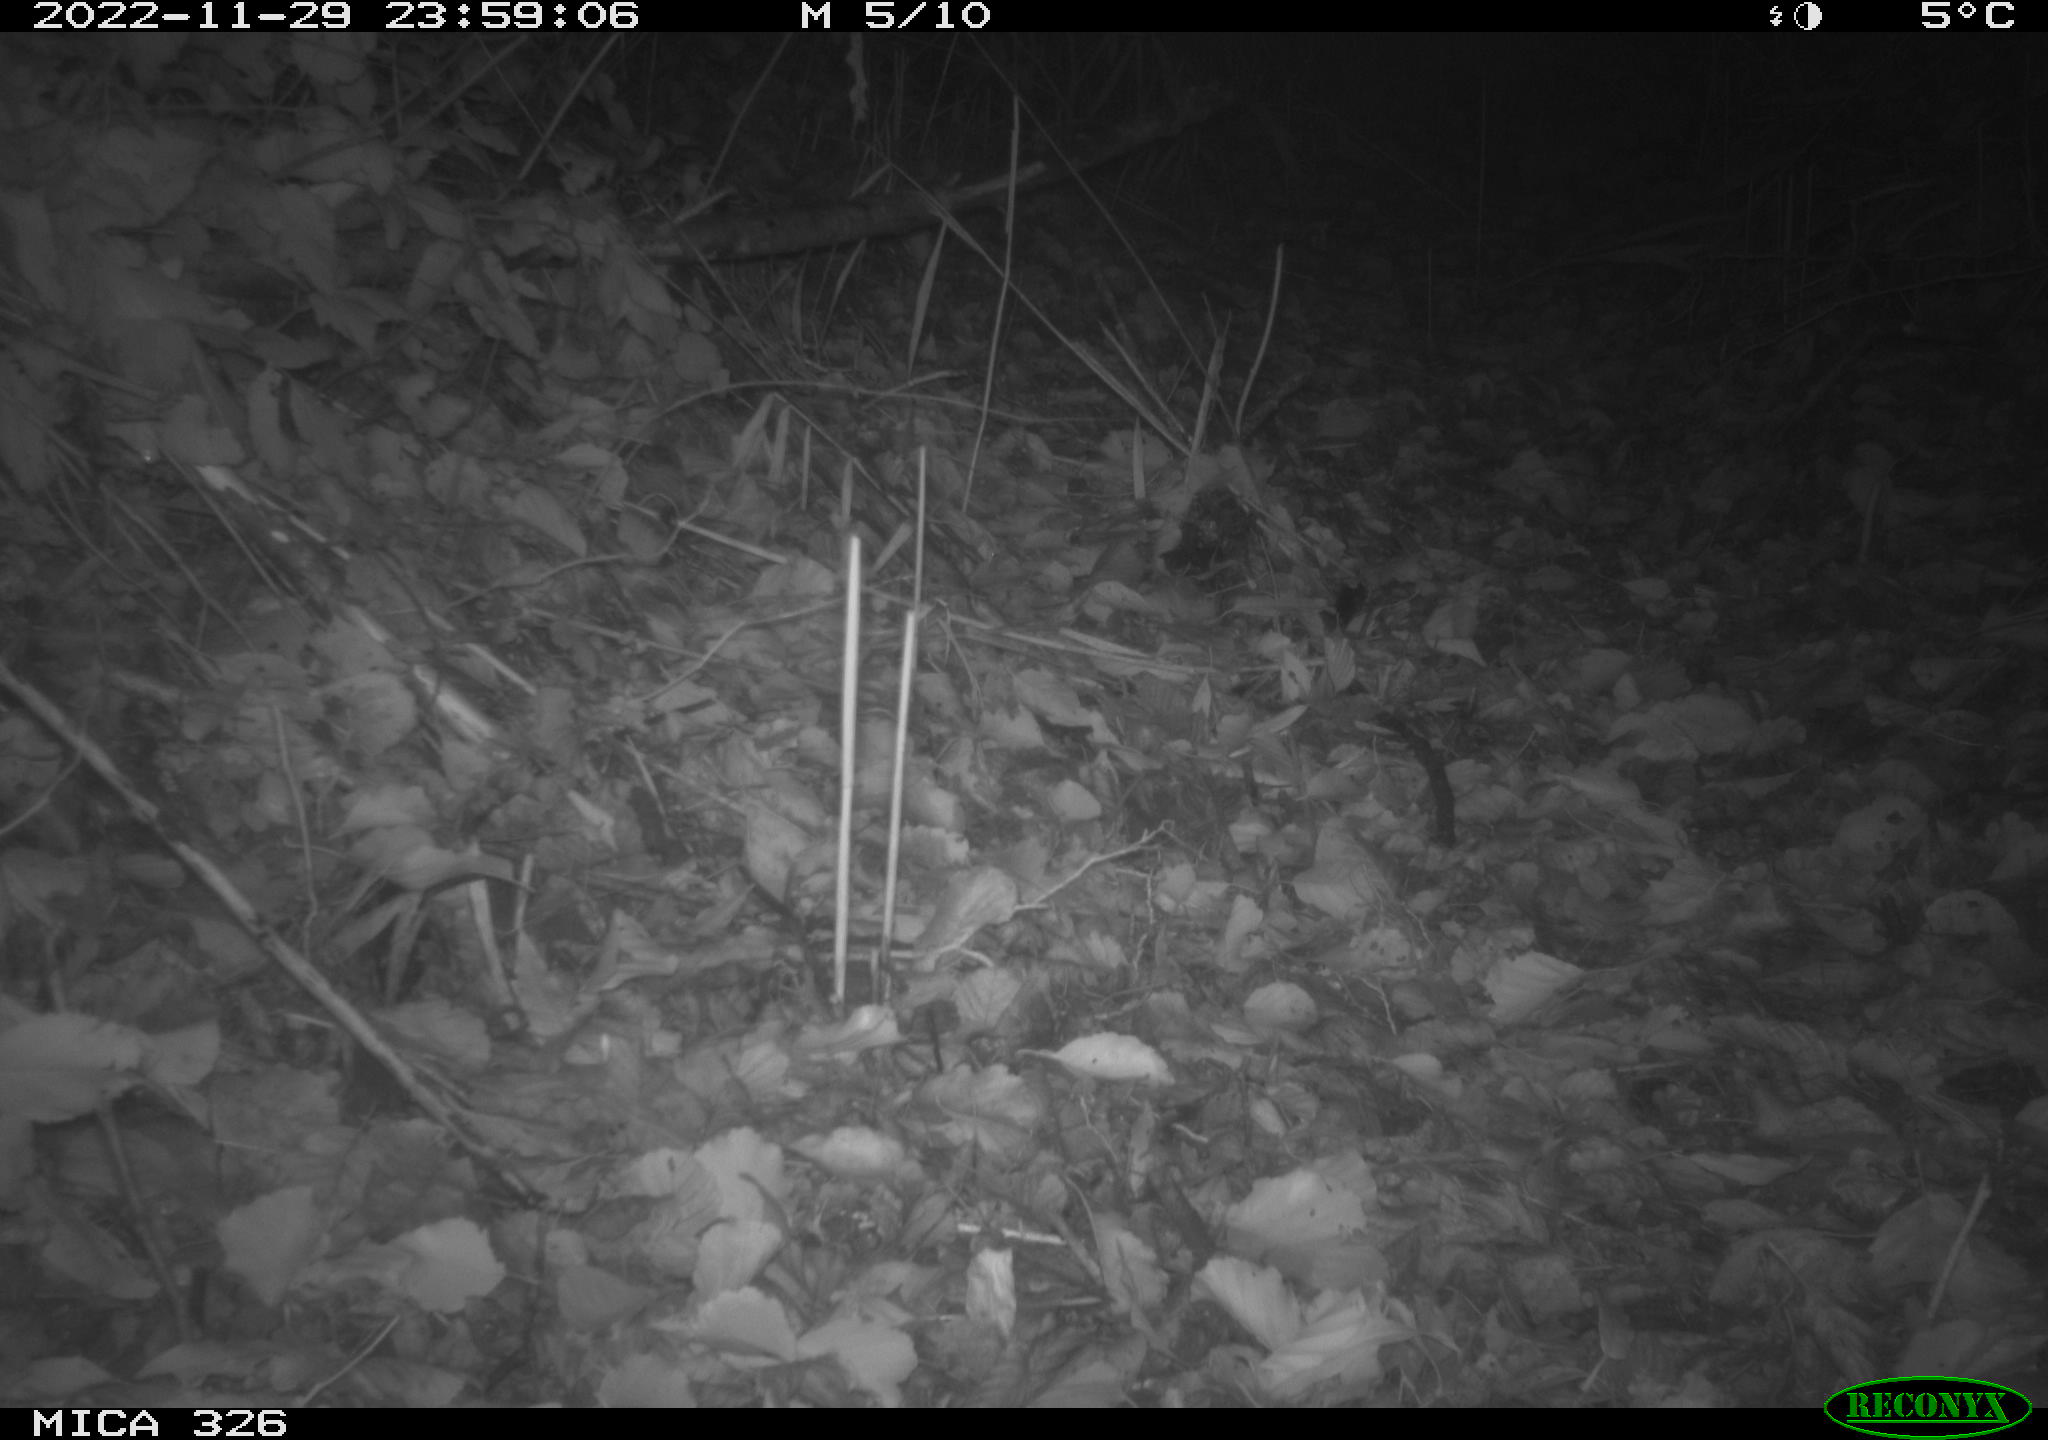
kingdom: Animalia
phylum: Chordata
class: Mammalia
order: Rodentia
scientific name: Rodentia
